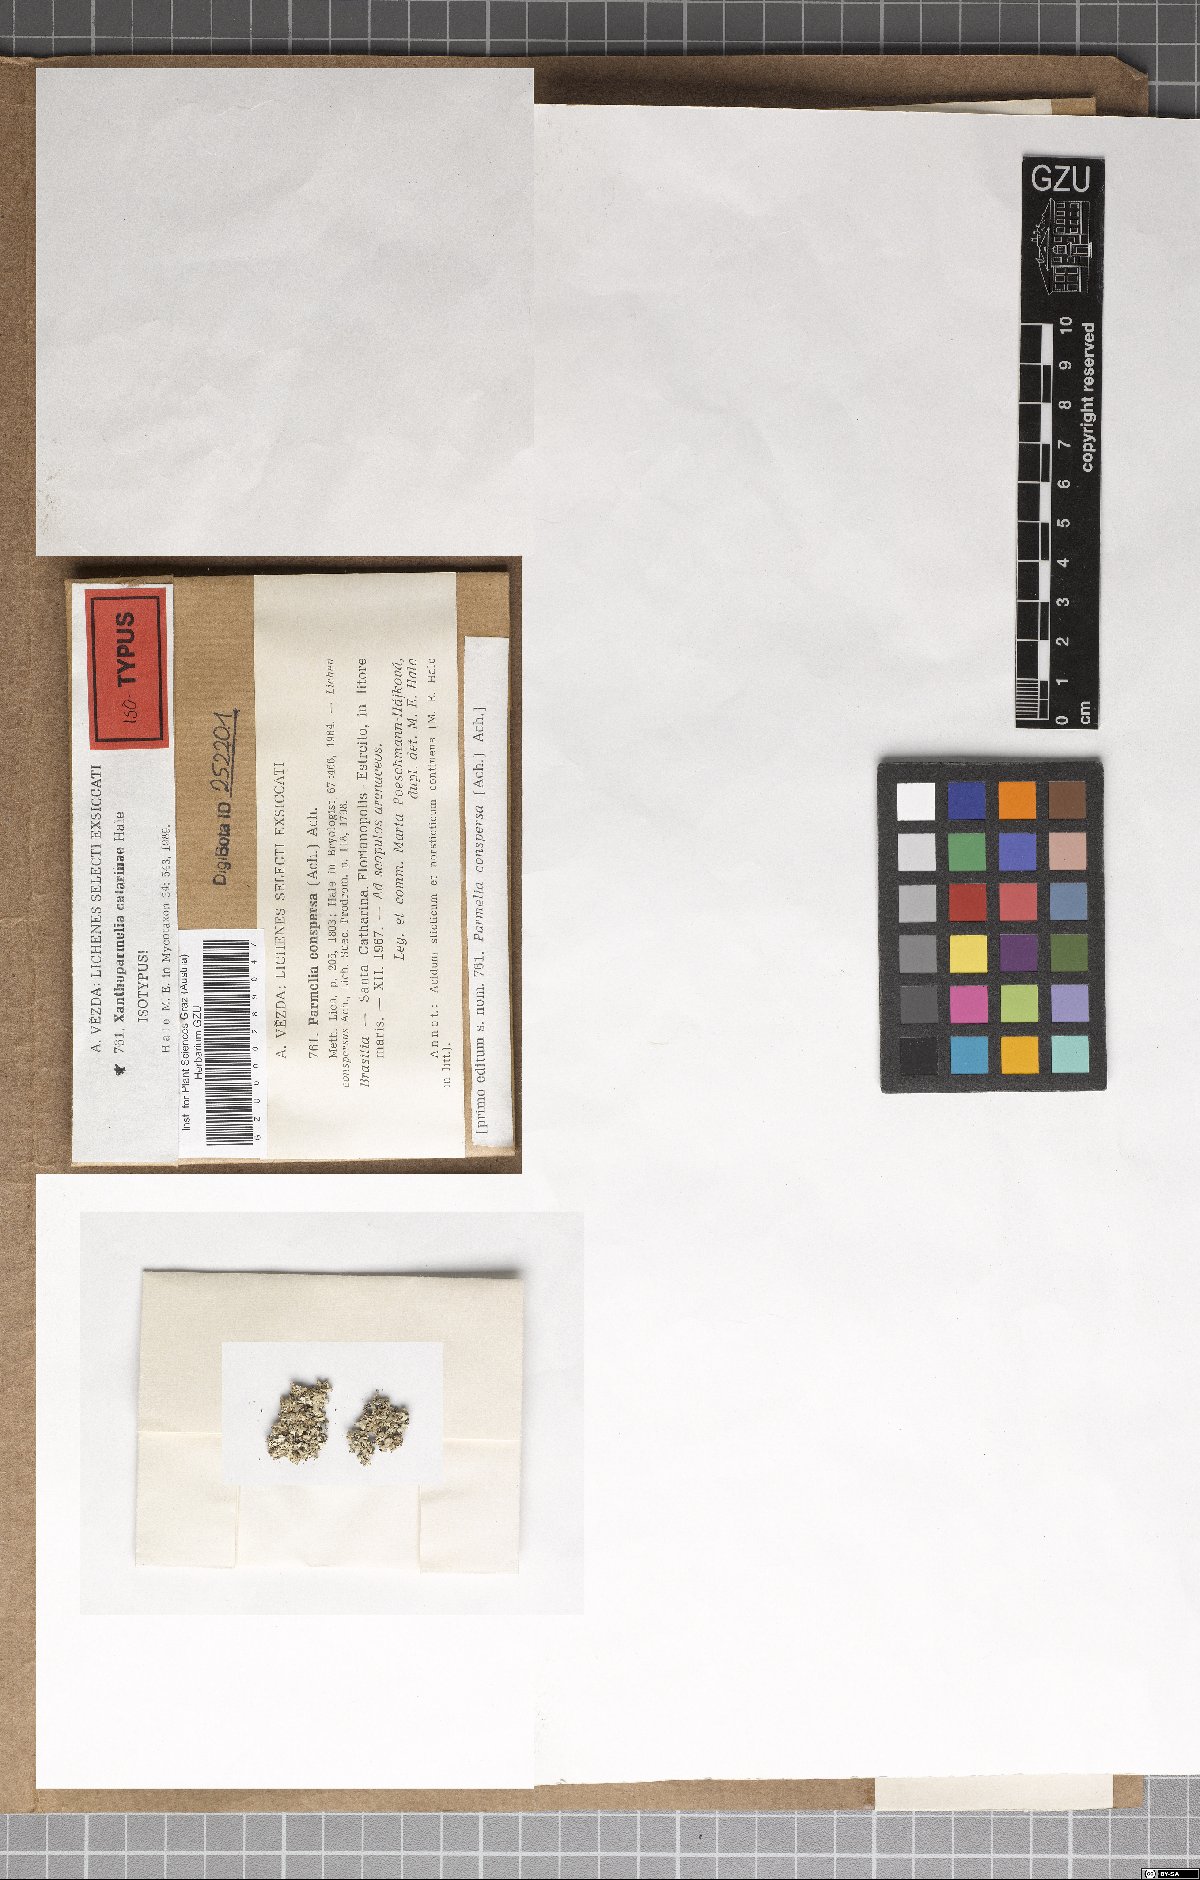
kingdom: Fungi
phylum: Ascomycota
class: Lecanoromycetes
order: Lecanorales
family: Parmeliaceae
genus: Xanthoparmelia
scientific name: Xanthoparmelia catarinae
